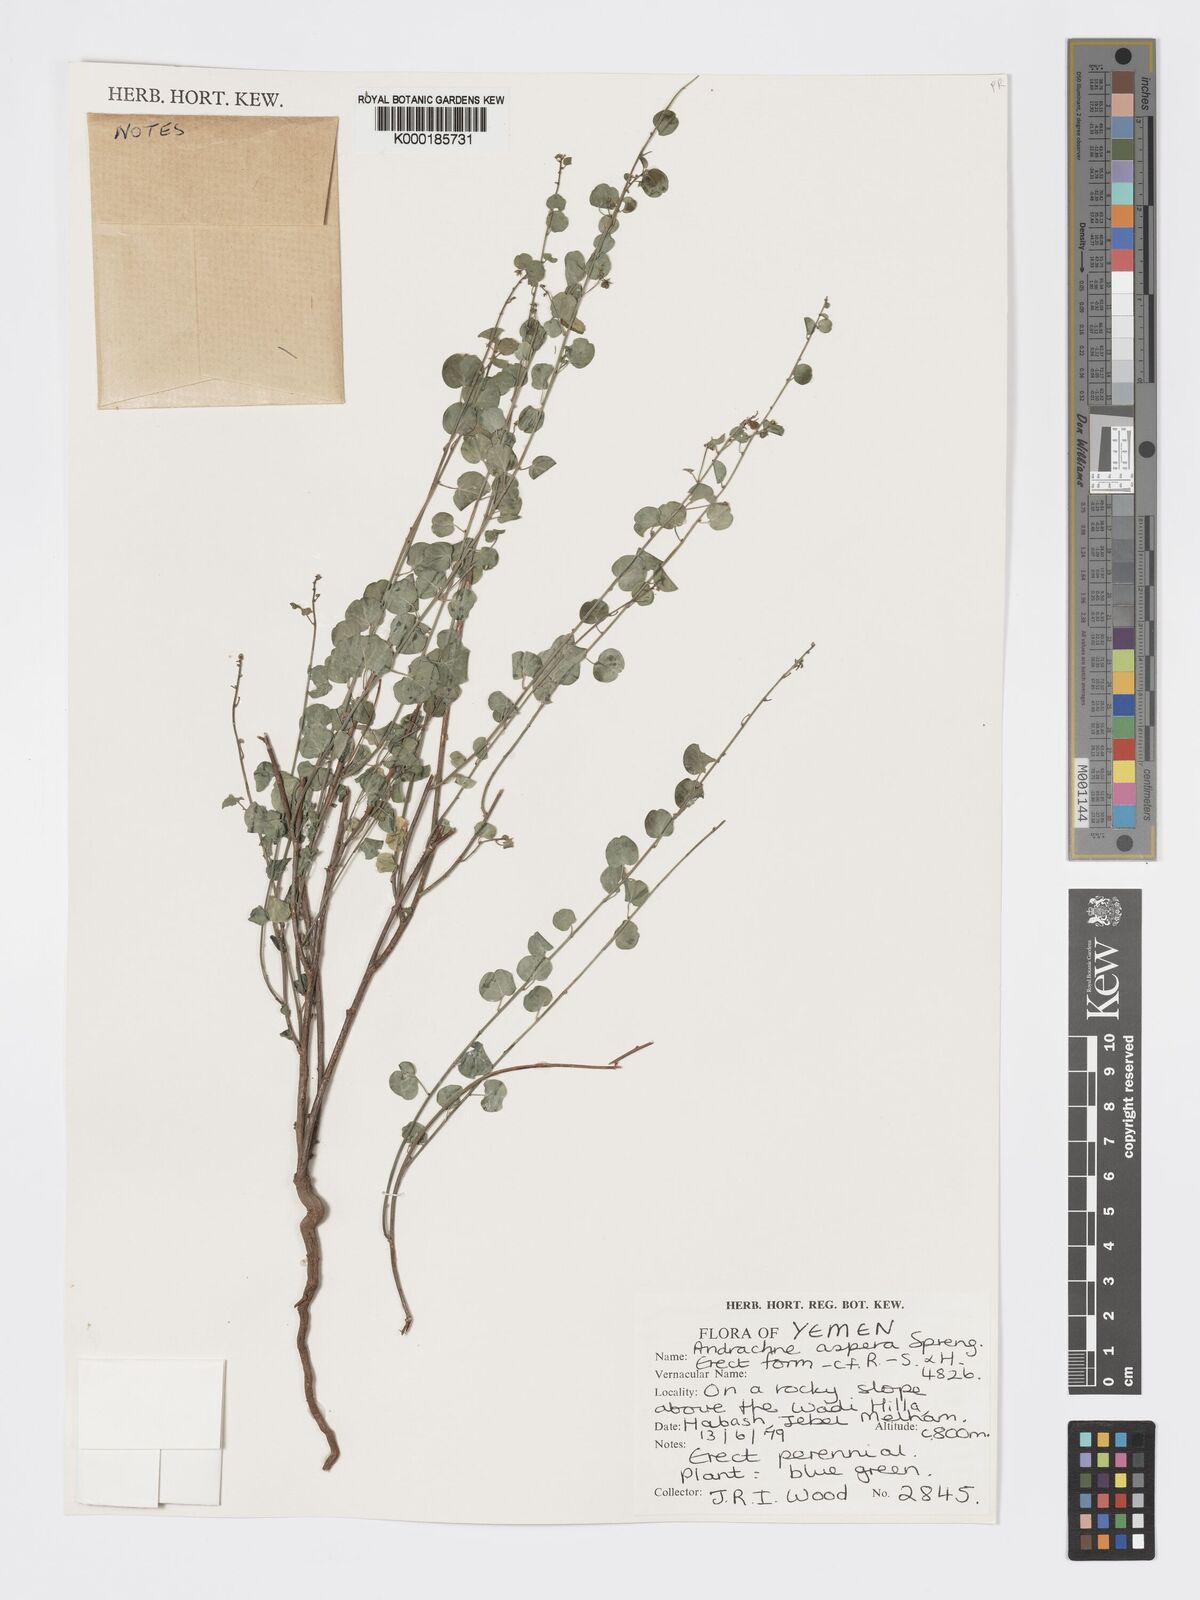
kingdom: Plantae
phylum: Tracheophyta
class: Magnoliopsida
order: Malpighiales
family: Phyllanthaceae
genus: Andrachne
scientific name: Andrachne aspera
